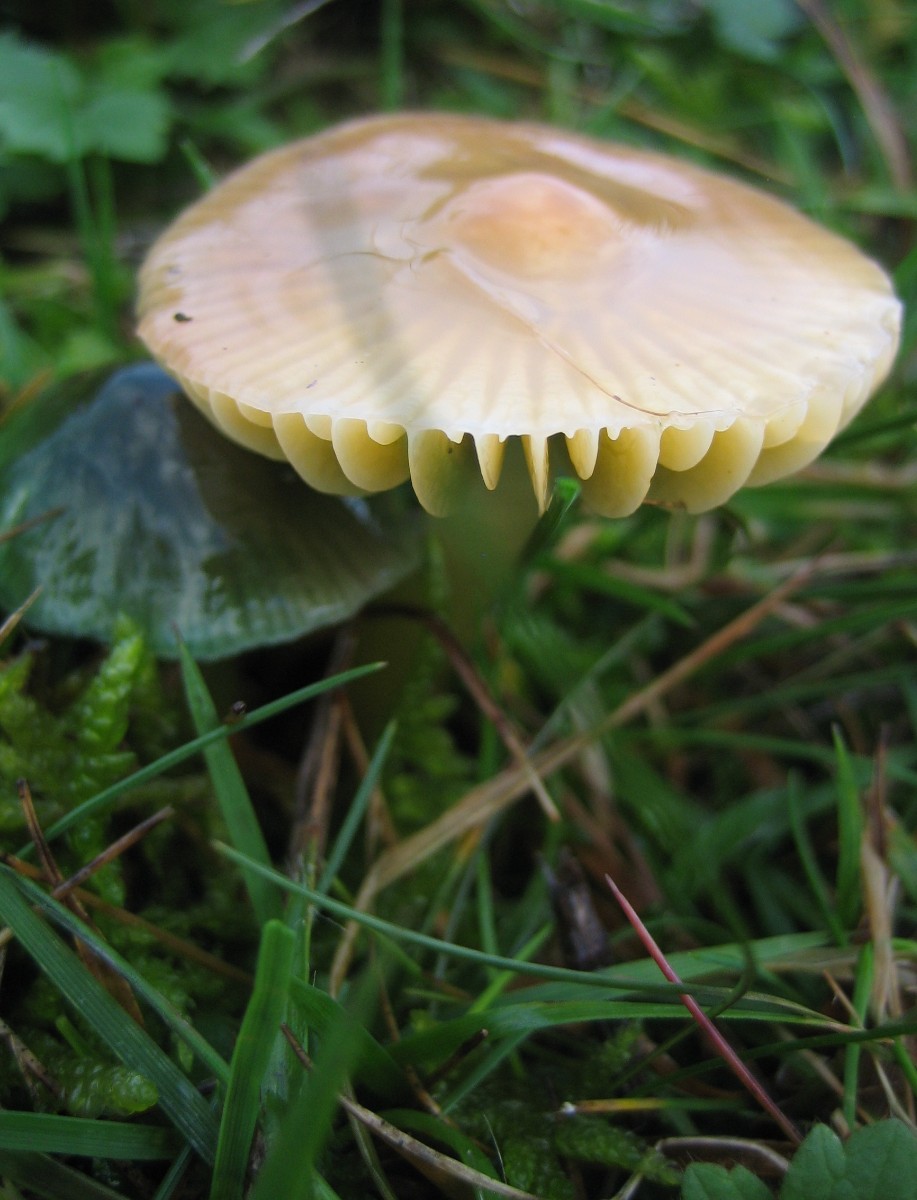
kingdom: Fungi
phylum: Basidiomycota
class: Agaricomycetes
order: Agaricales
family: Hygrophoraceae
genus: Gliophorus
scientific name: Gliophorus psittacinus
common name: papegøje-vokshat
